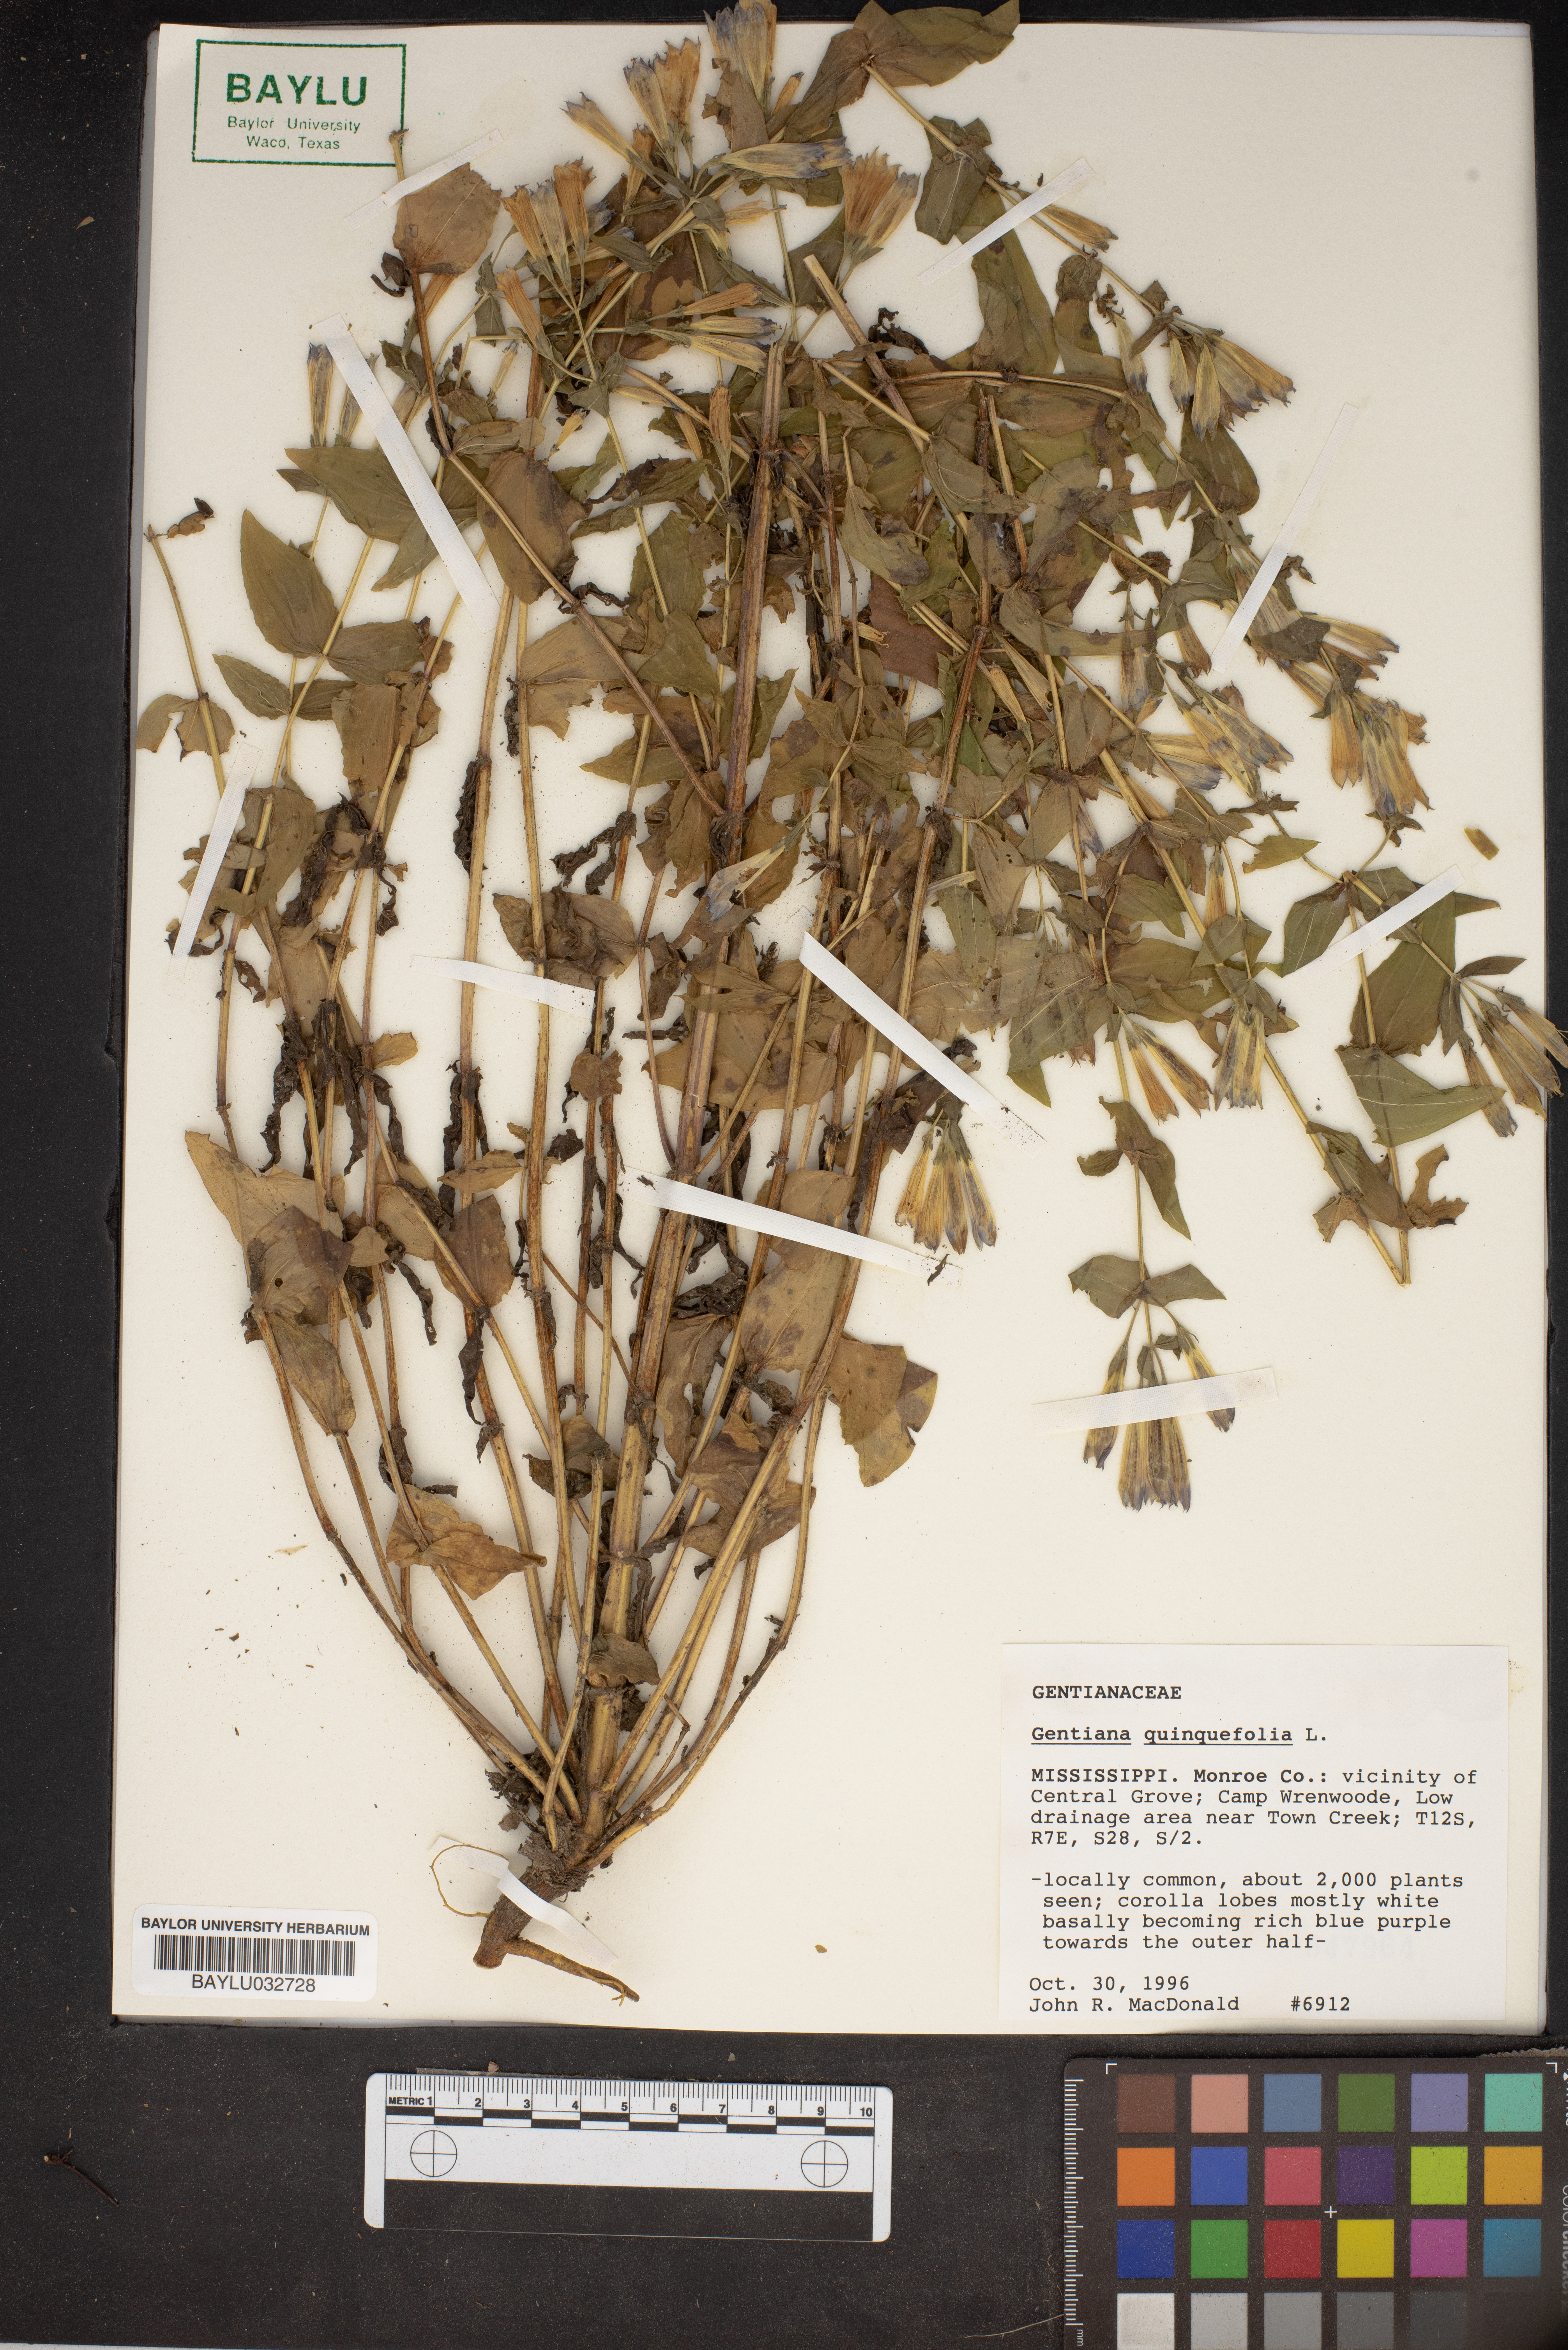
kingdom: Plantae
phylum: Tracheophyta
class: Magnoliopsida
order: Gentianales
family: Gentianaceae
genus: Gentianella
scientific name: Gentianella quinquefolia
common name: Agueweed
